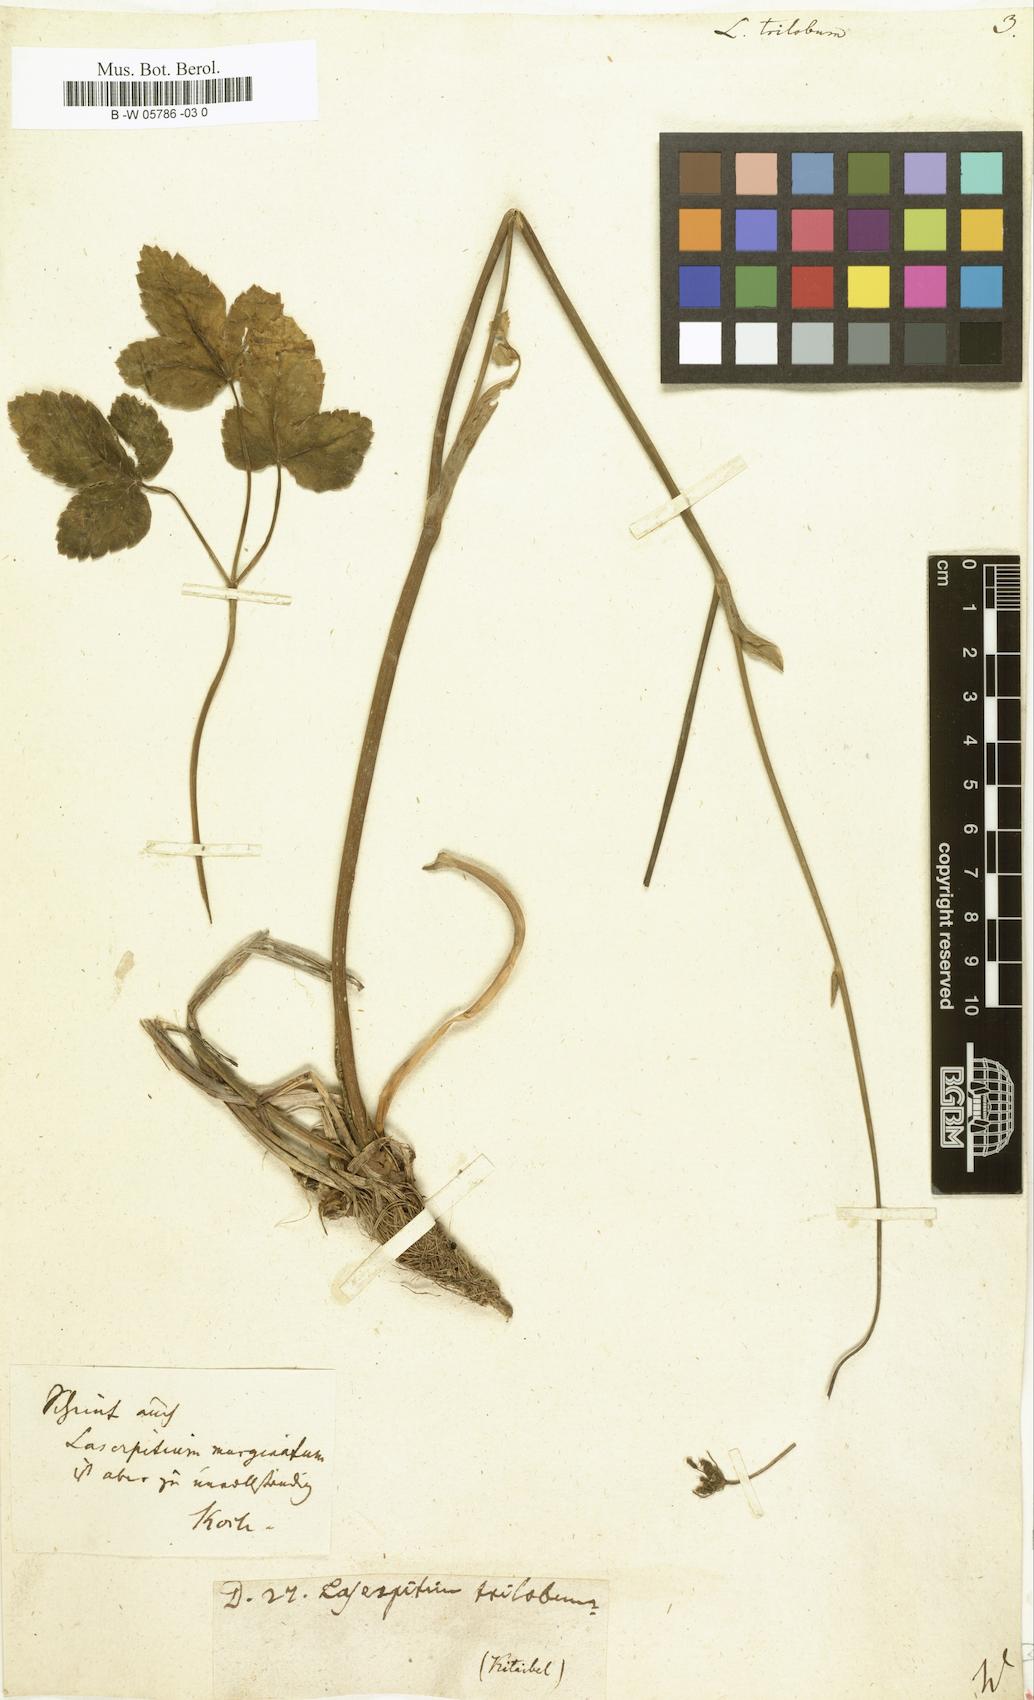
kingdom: Plantae
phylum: Tracheophyta
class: Magnoliopsida
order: Apiales
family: Apiaceae
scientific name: Apiaceae
